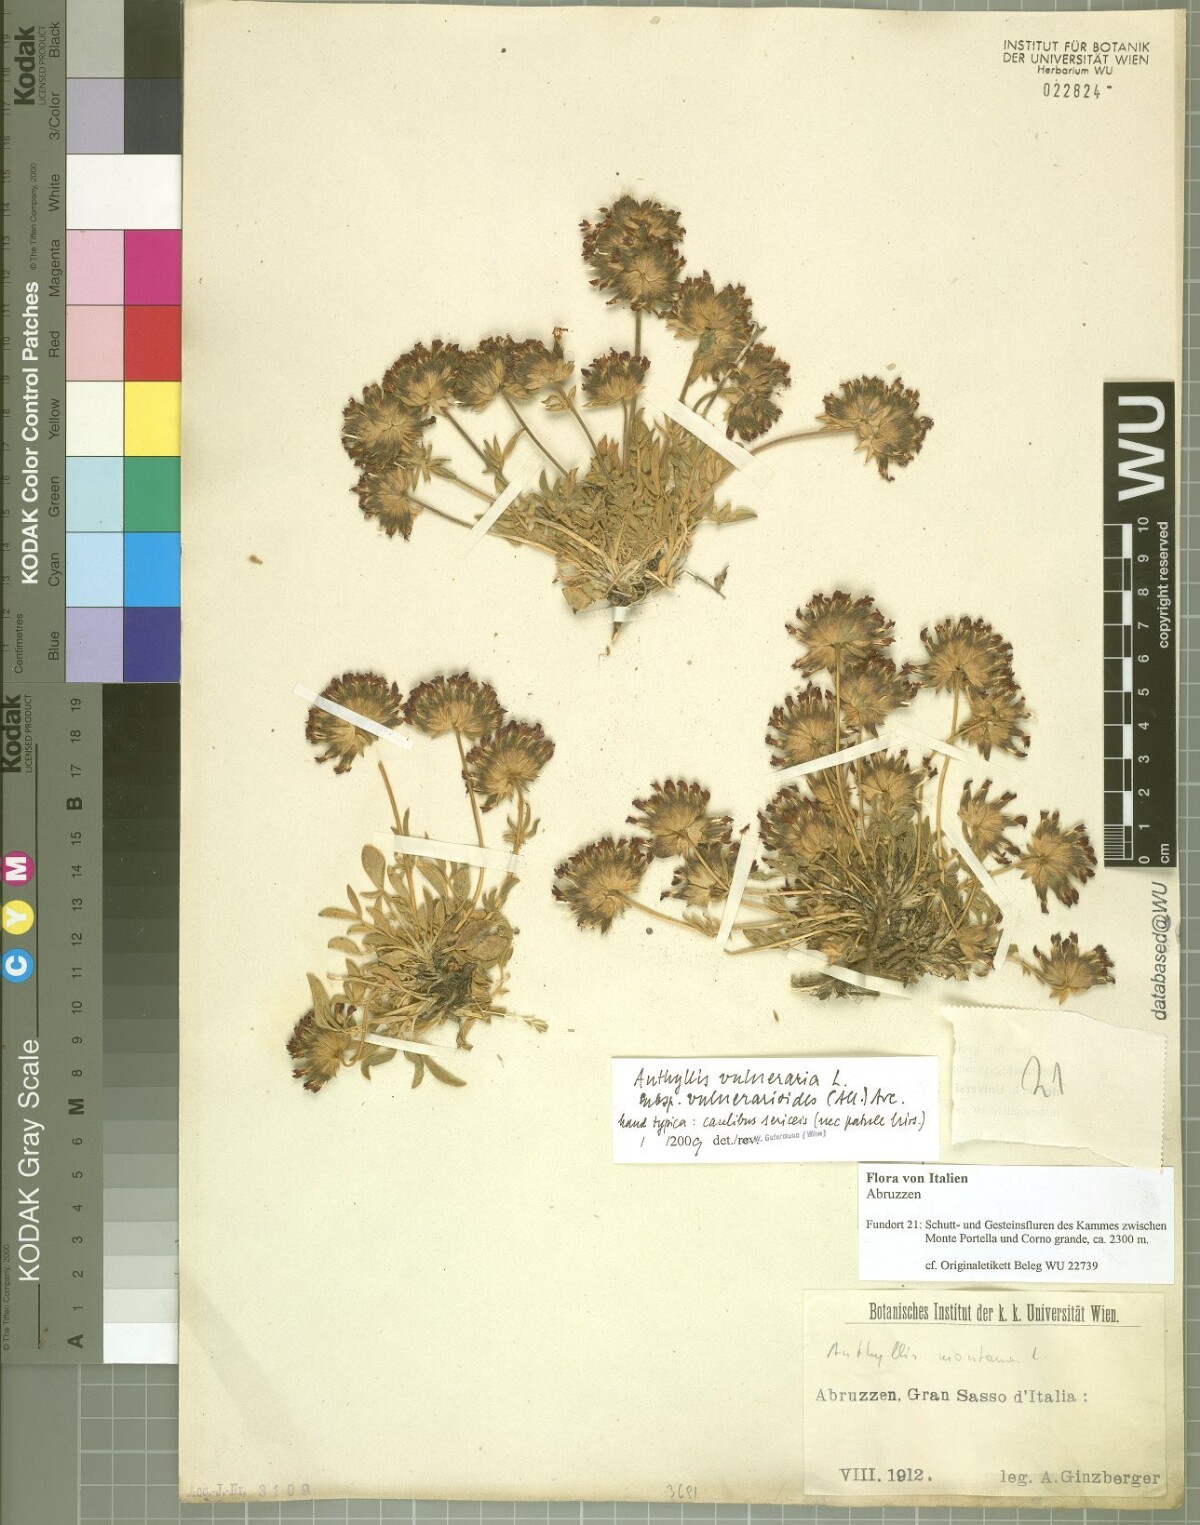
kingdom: Plantae
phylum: Tracheophyta
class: Magnoliopsida
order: Fabales
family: Fabaceae
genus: Anthyllis
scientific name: Anthyllis vulneraria
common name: Kidney vetch
